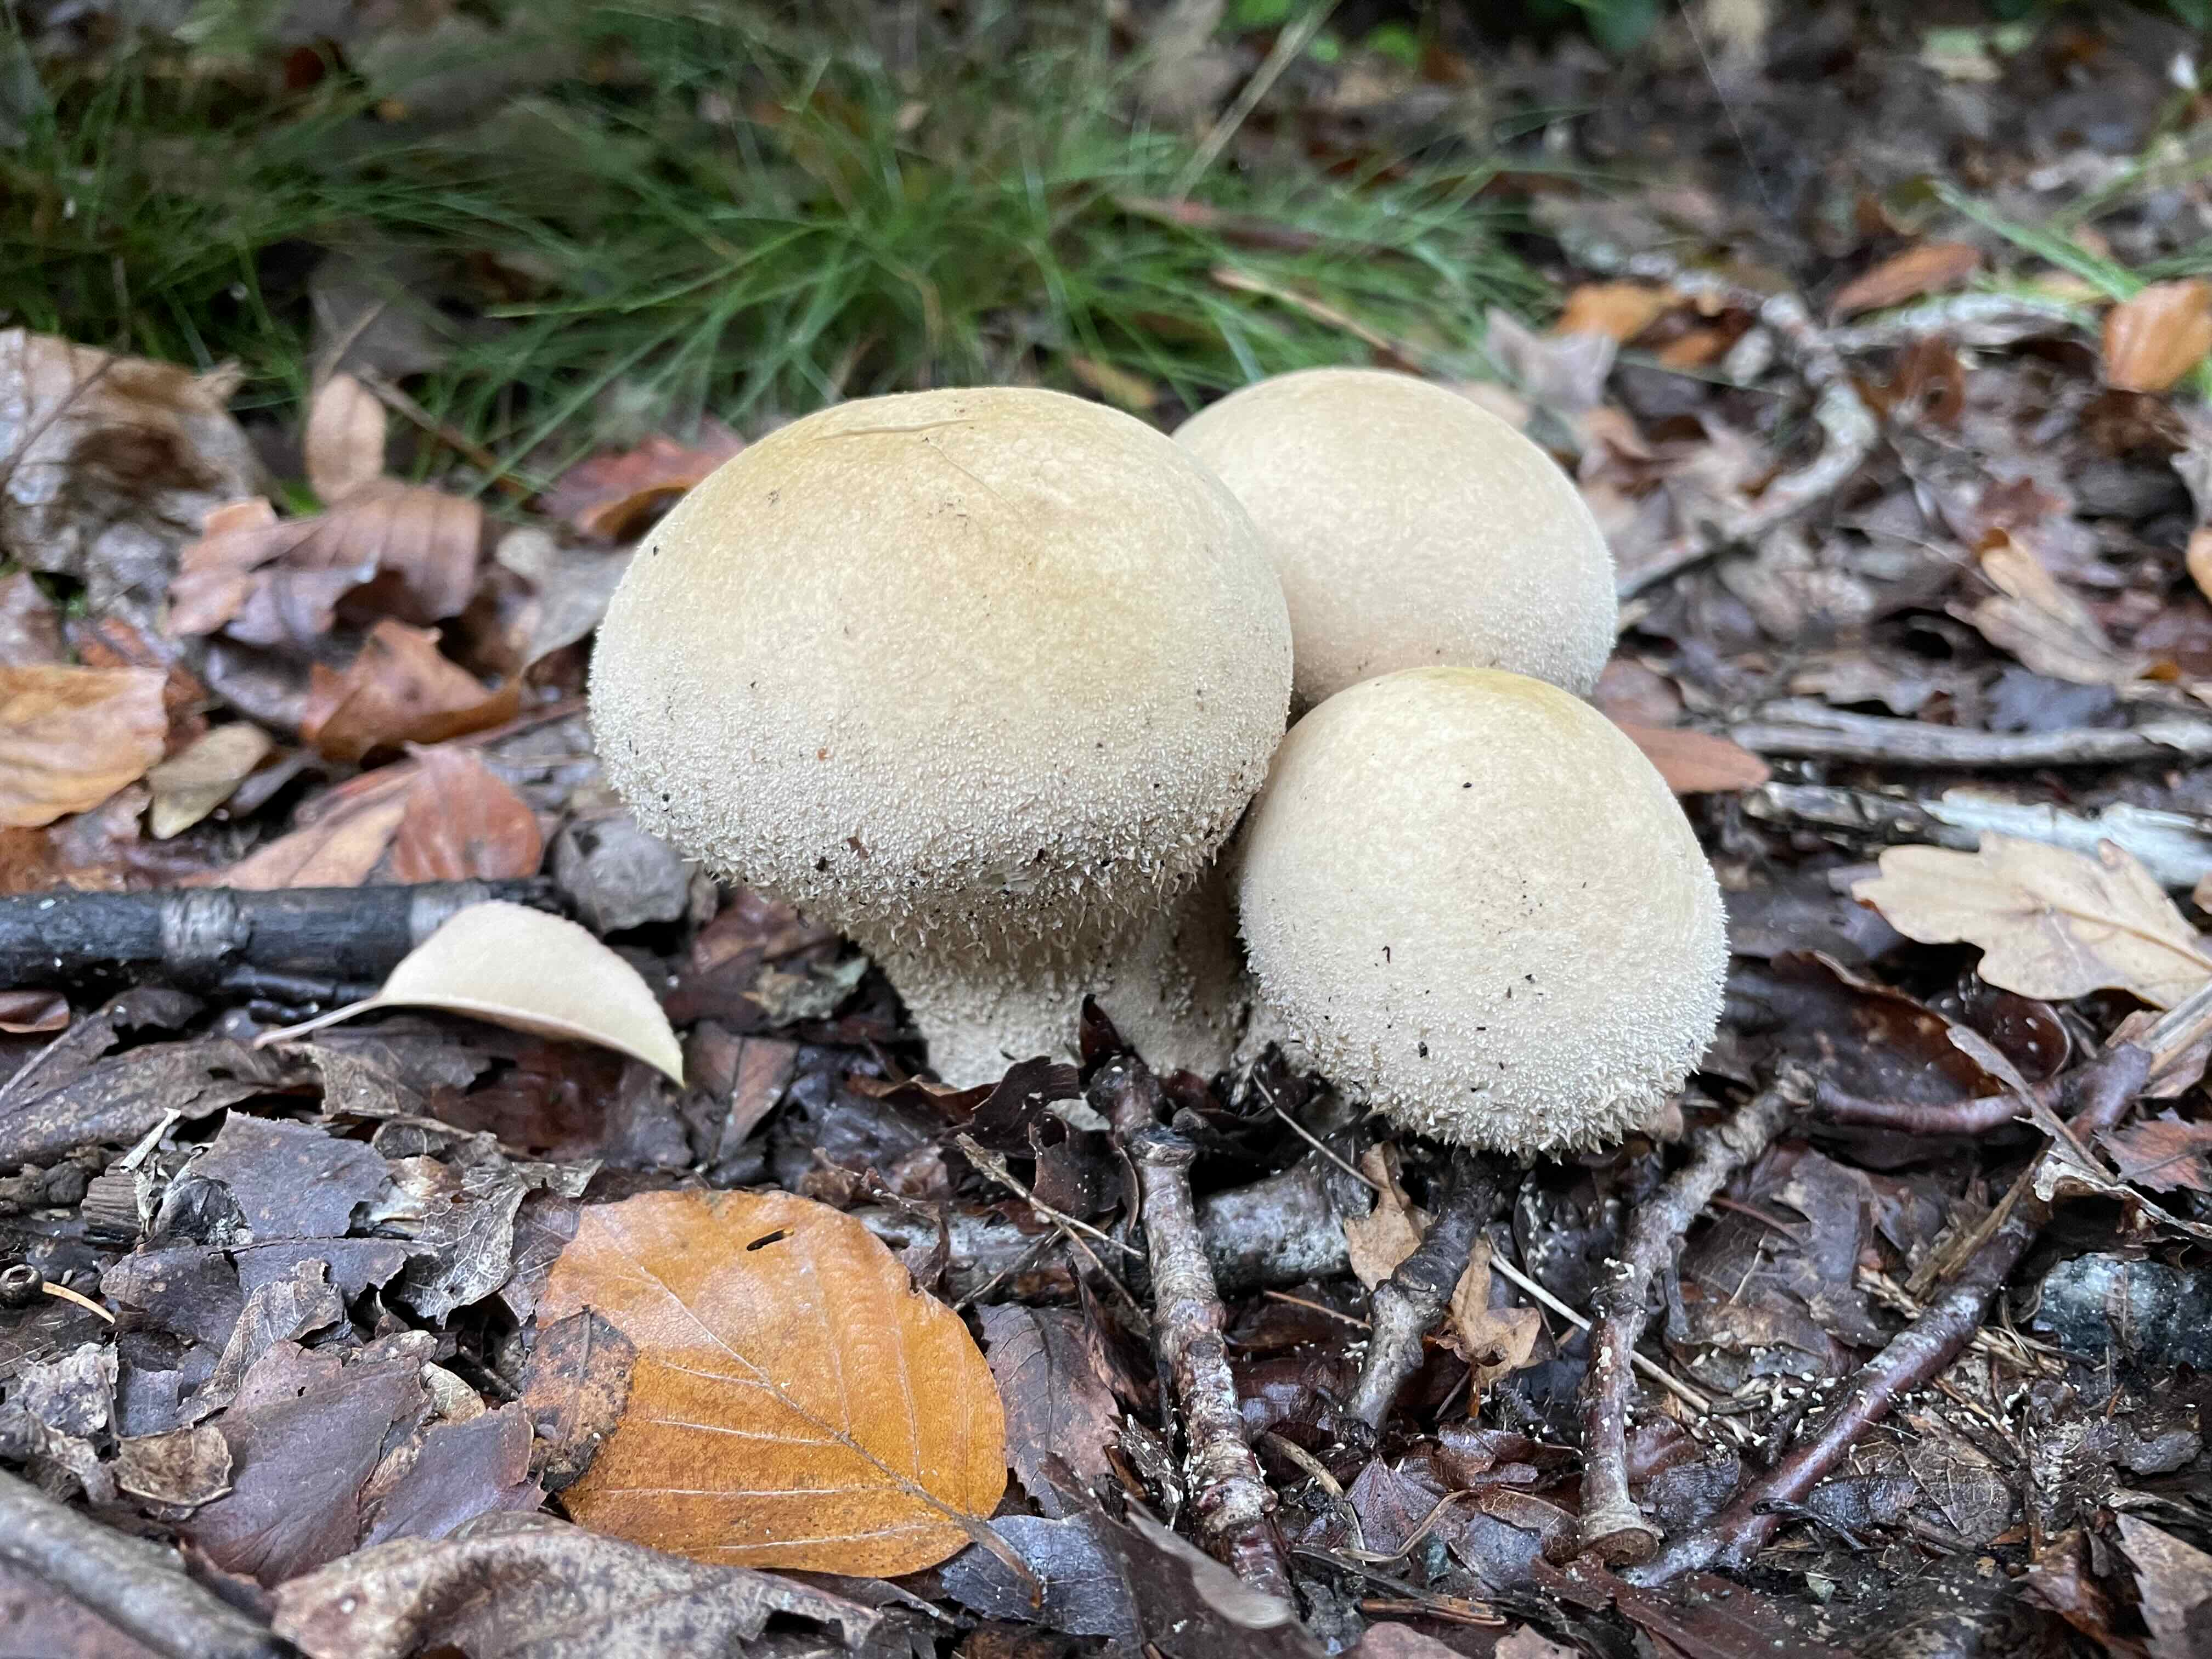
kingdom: Fungi
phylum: Basidiomycota
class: Agaricomycetes
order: Agaricales
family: Agaricaceae
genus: Lycoperdon
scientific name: Lycoperdon
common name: støvbold
